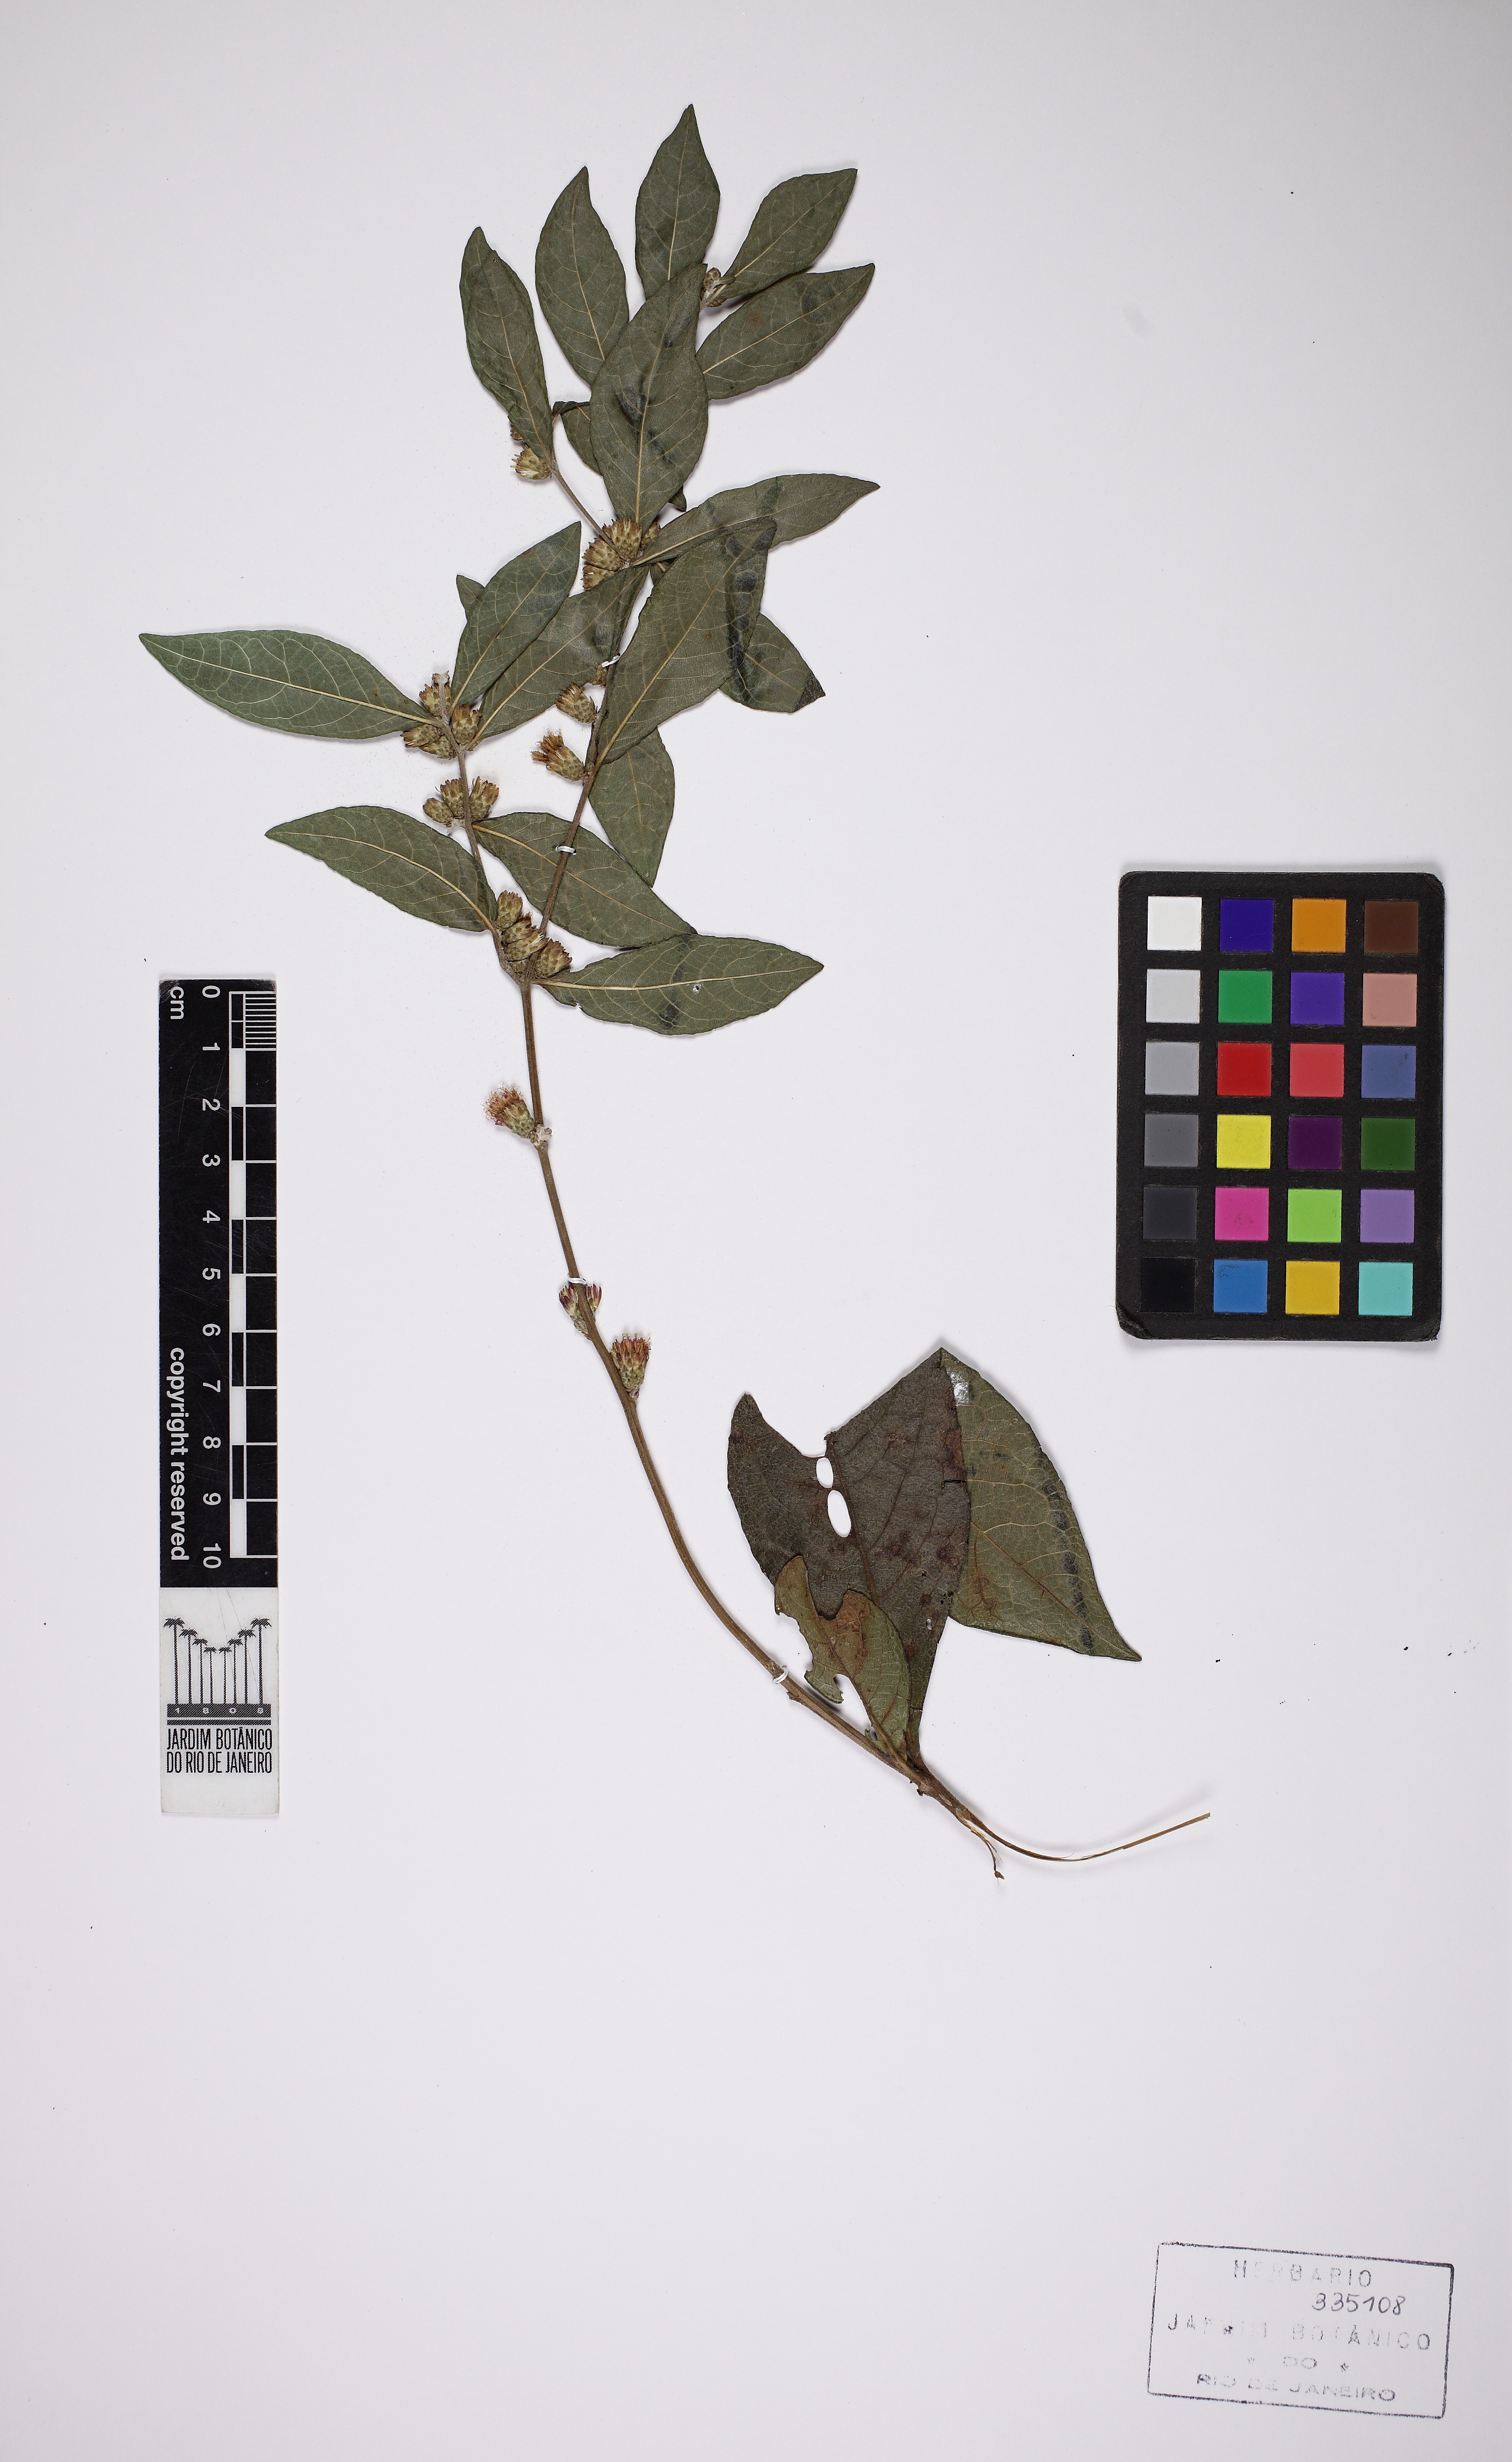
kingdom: Plantae
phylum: Tracheophyta
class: Magnoliopsida
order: Asterales
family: Asteraceae
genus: Lessingianthus
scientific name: Lessingianthus pseudopiptocarphus
